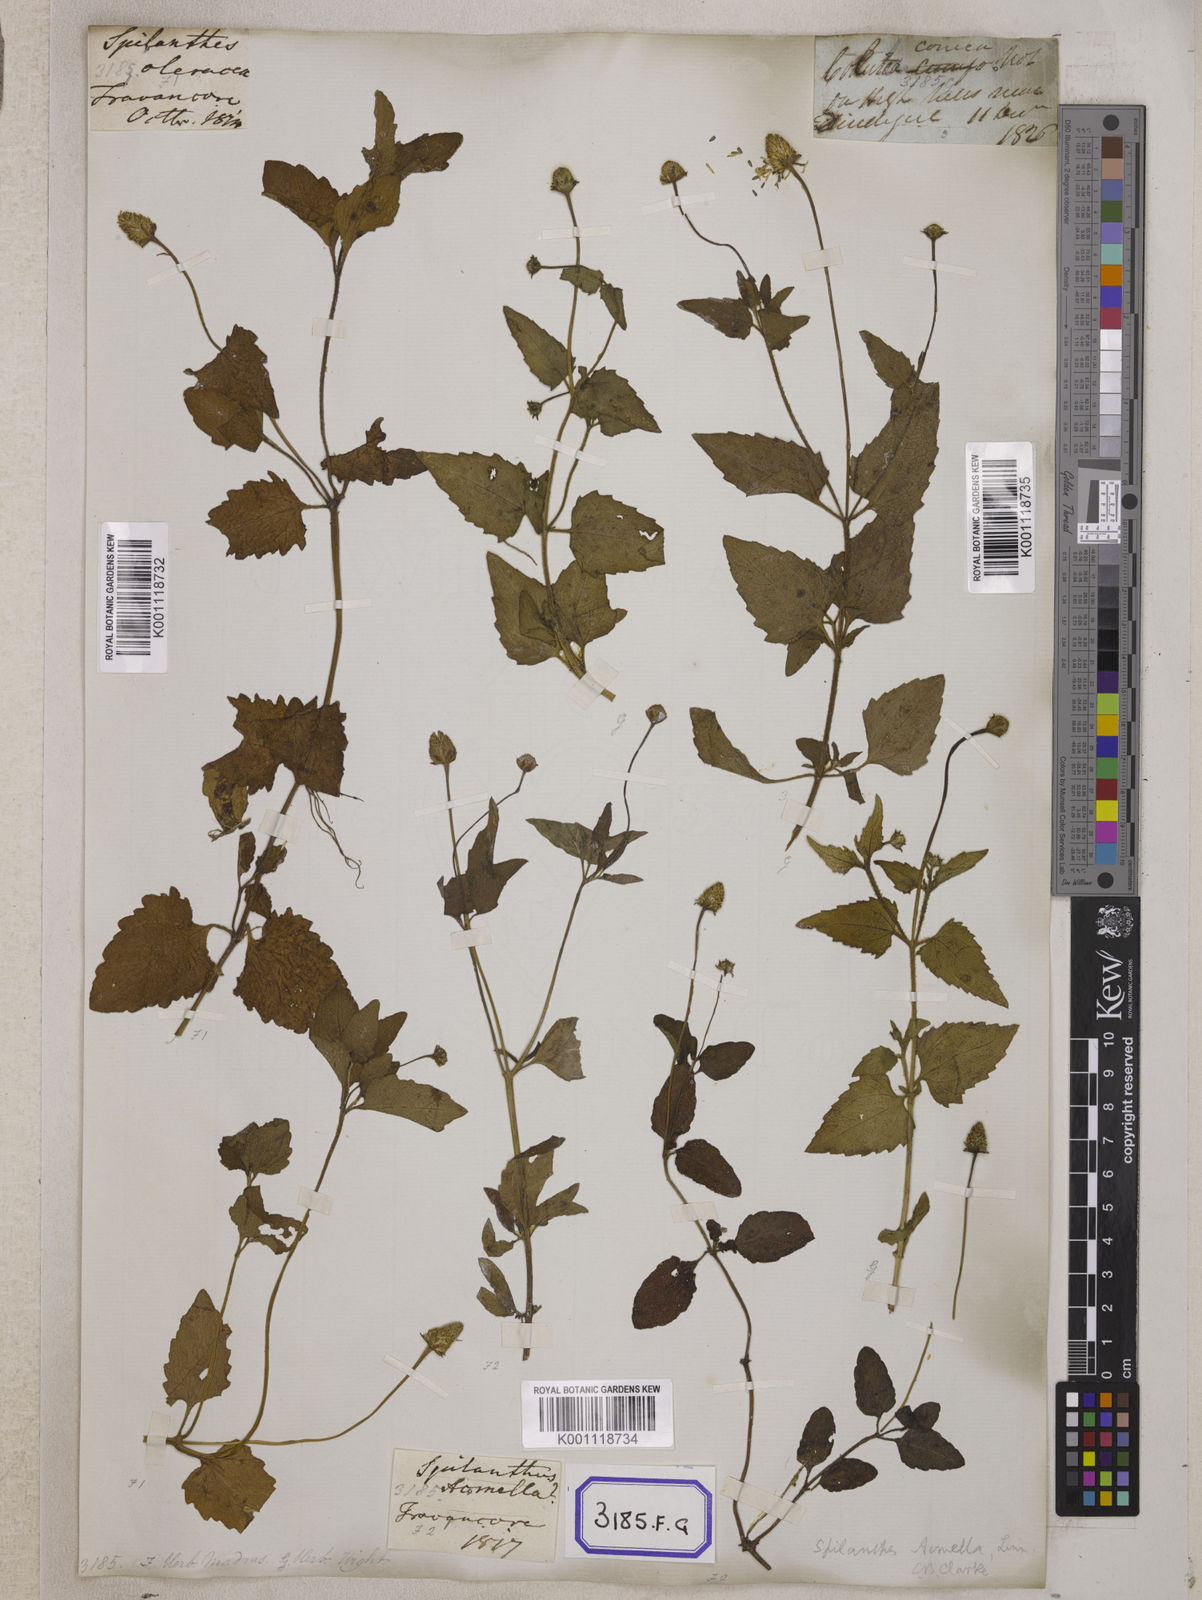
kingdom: Plantae
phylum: Tracheophyta
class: Magnoliopsida
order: Asterales
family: Asteraceae
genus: Blainvillea
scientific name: Blainvillea acmella
